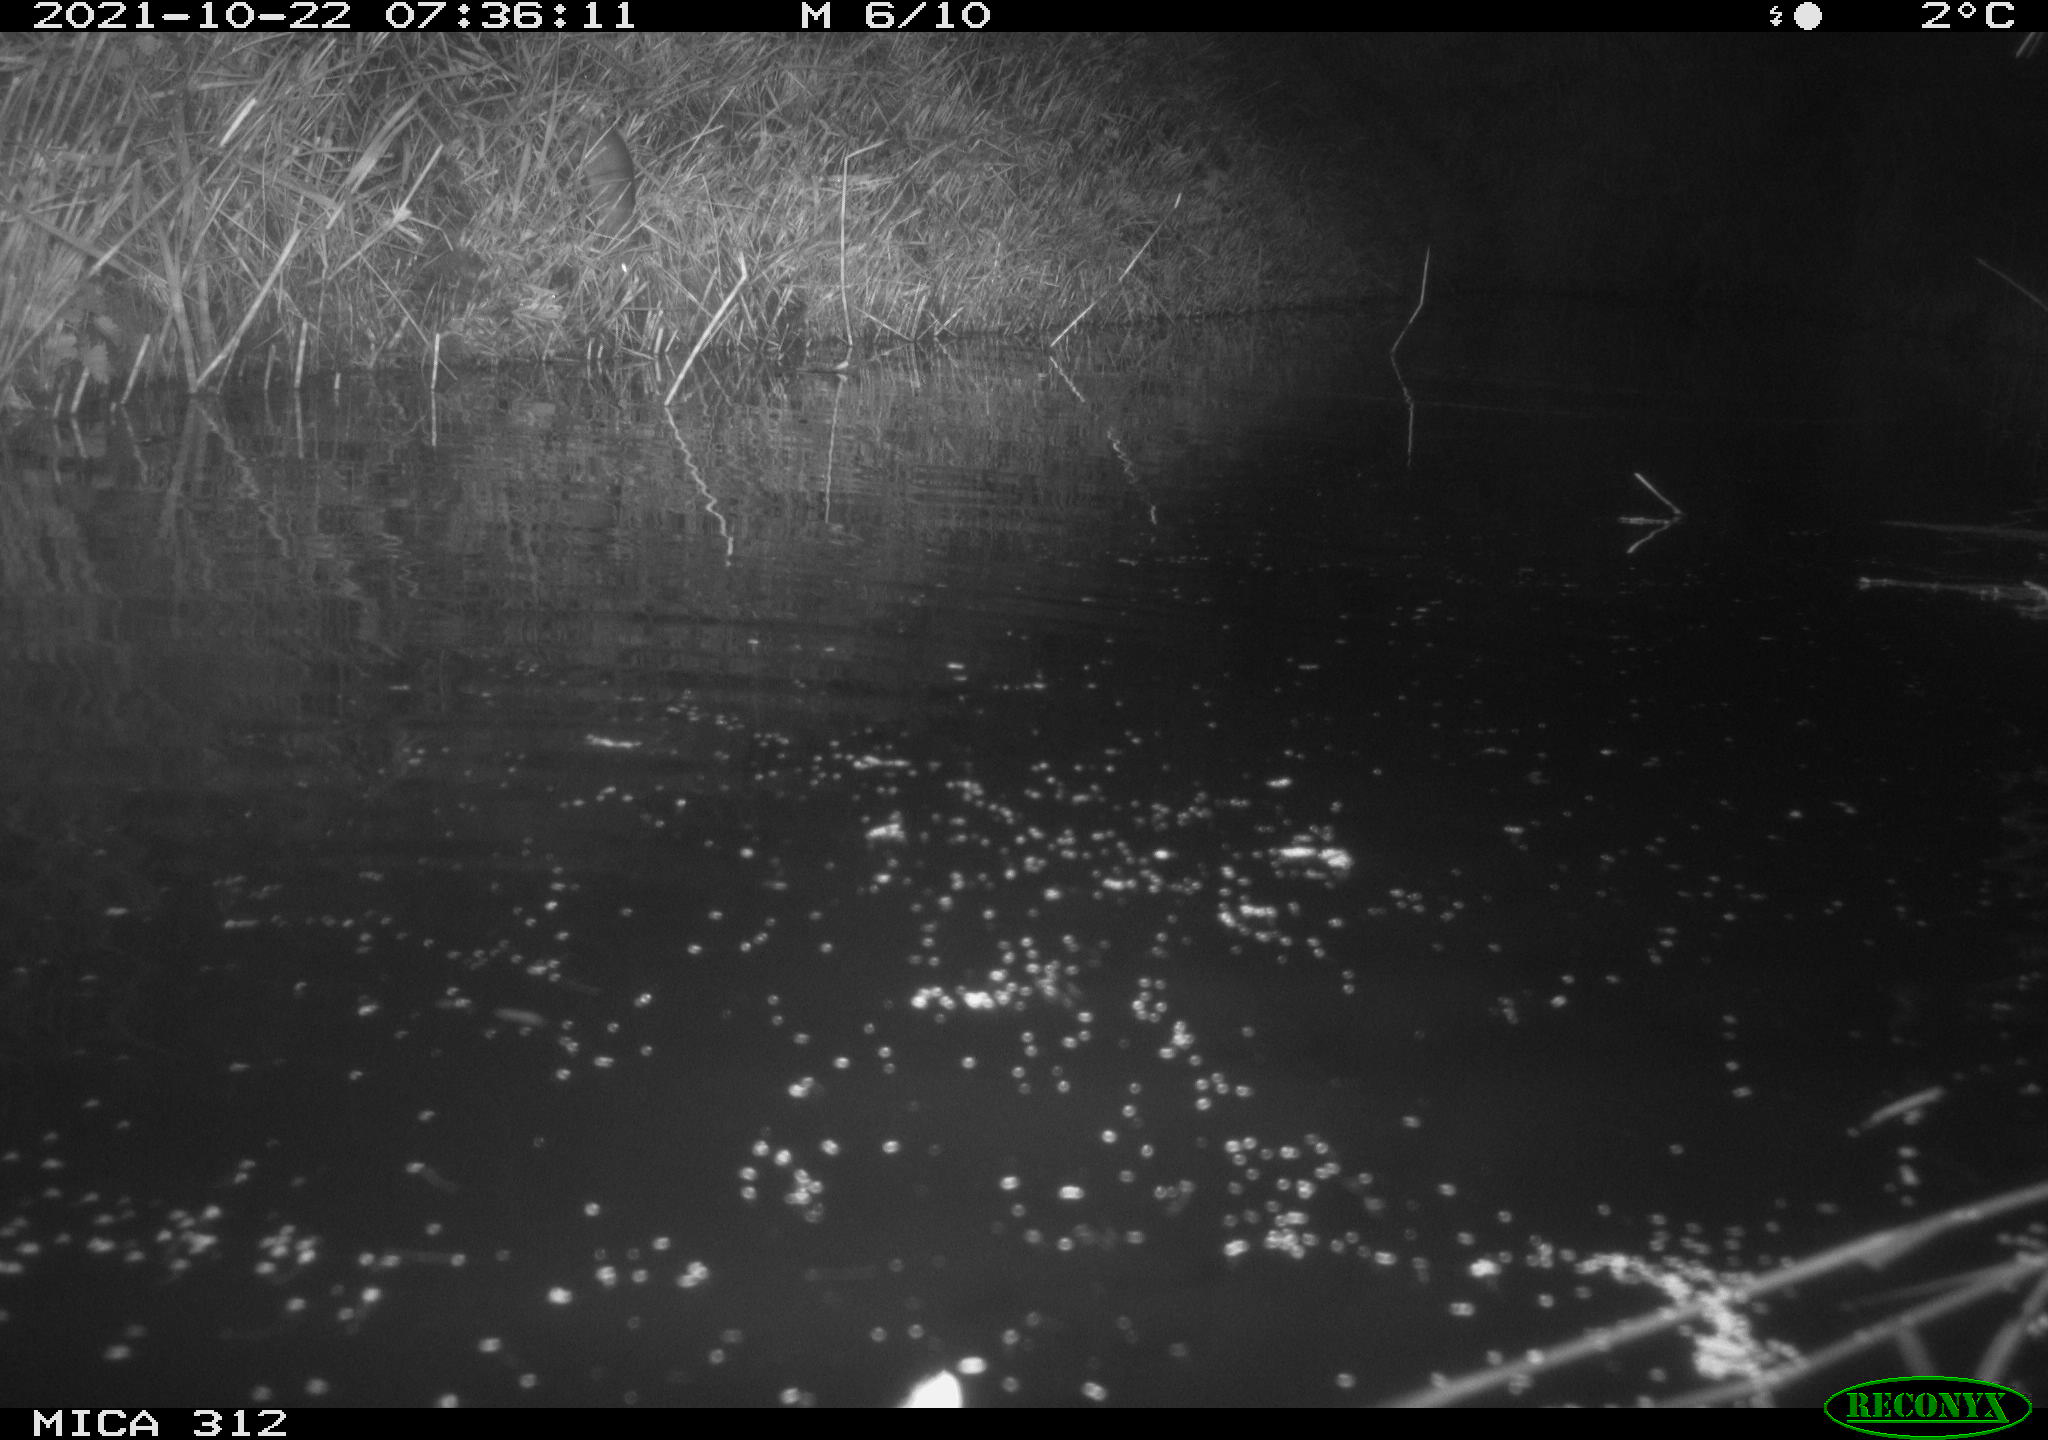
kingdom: Animalia
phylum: Chordata
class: Mammalia
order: Rodentia
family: Muridae
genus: Rattus
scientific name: Rattus norvegicus
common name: Brown rat
